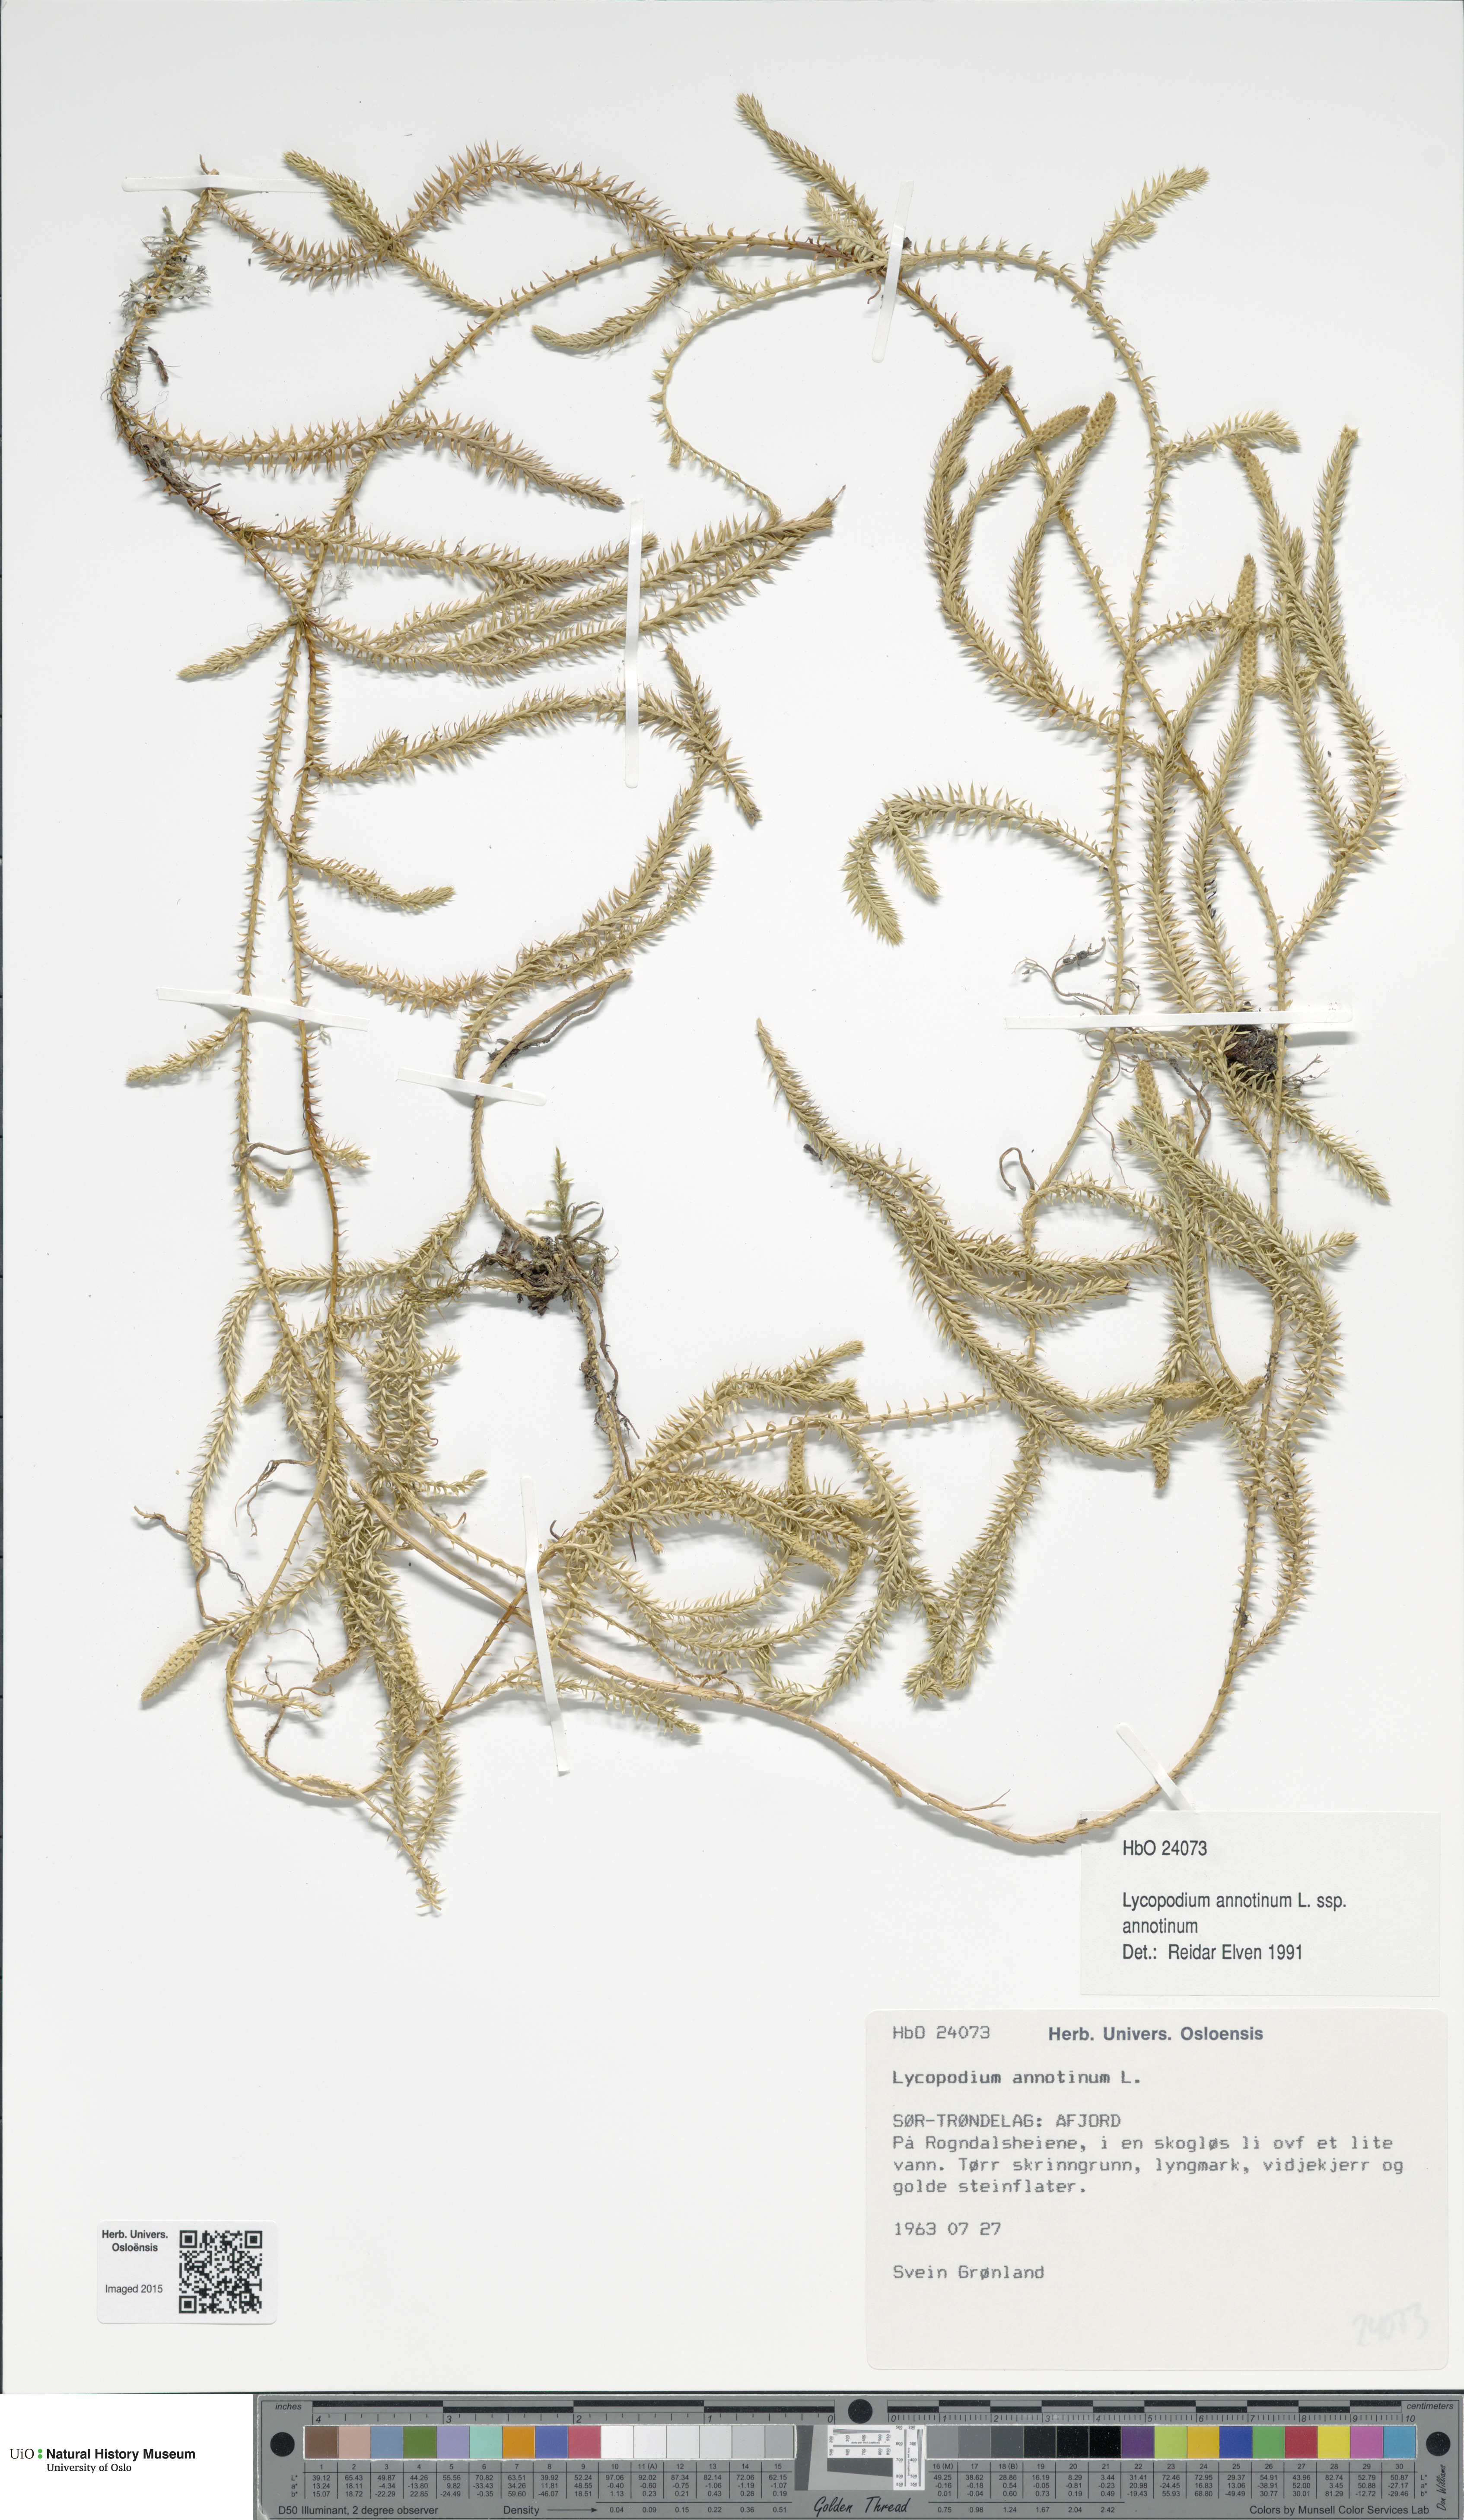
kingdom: Plantae
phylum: Tracheophyta
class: Lycopodiopsida
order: Lycopodiales
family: Lycopodiaceae
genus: Spinulum
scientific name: Spinulum annotinum
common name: Interrupted club-moss
